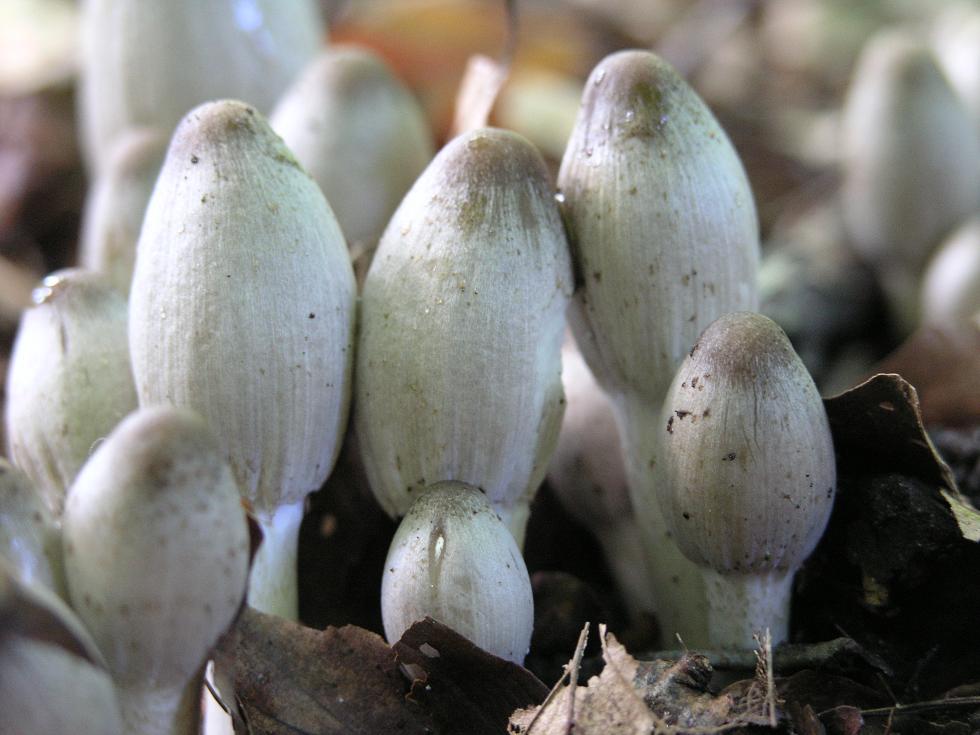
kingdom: Fungi
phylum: Basidiomycota
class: Agaricomycetes
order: Agaricales
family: Psathyrellaceae
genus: Coprinopsis
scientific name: Coprinopsis acuminata
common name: kegle-blækhat
